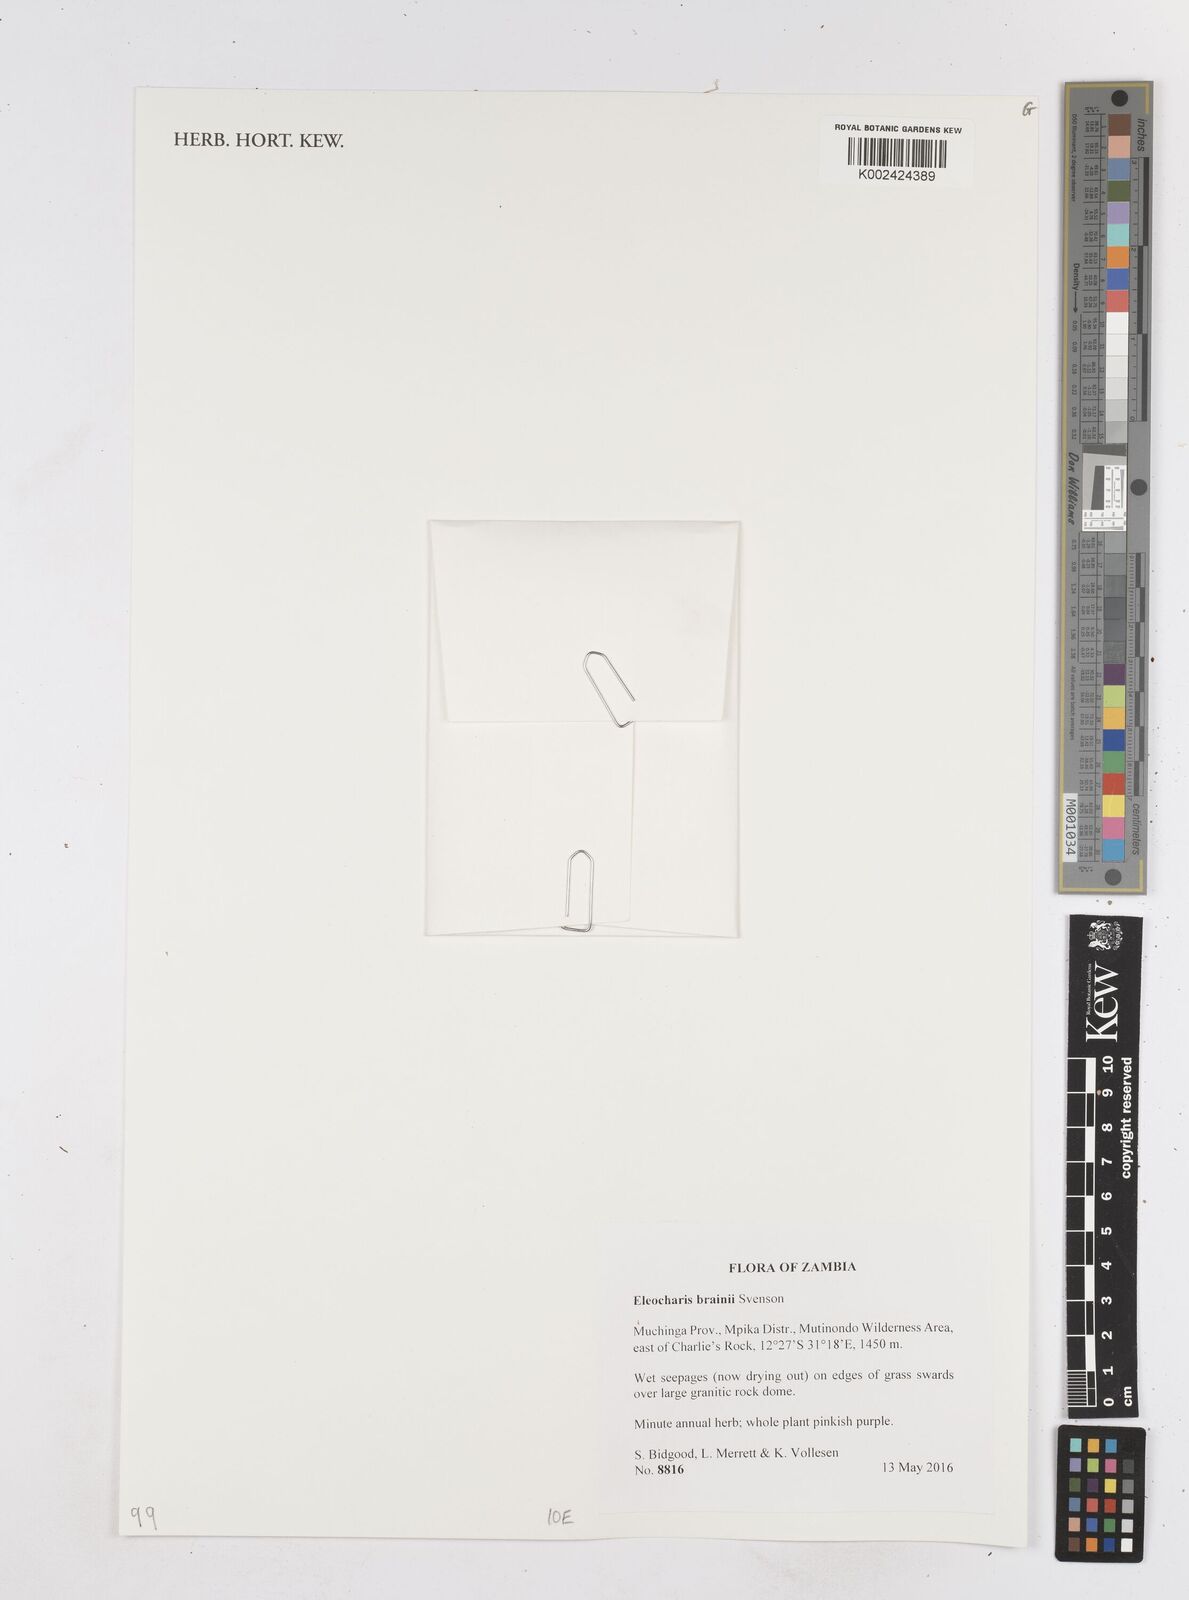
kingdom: Plantae
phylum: Tracheophyta
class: Liliopsida
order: Poales
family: Cyperaceae
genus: Eleocharis
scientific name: Eleocharis brainii
